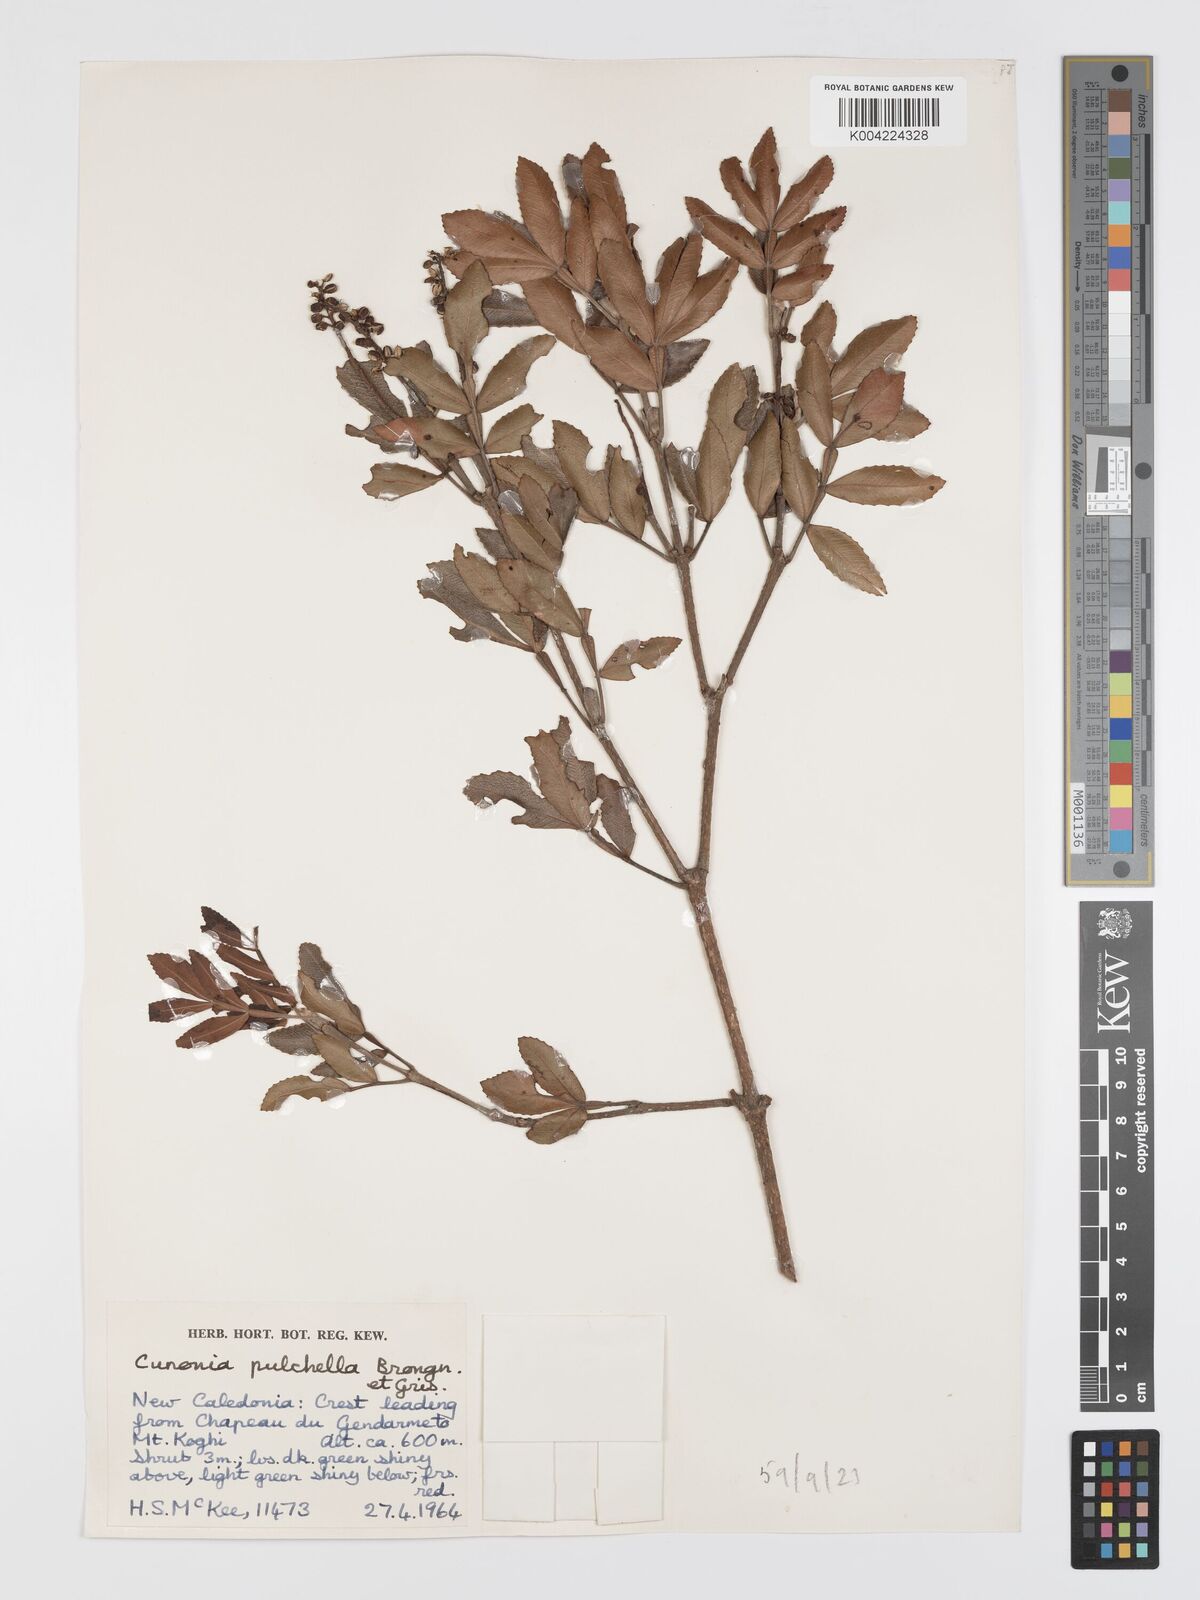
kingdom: Plantae
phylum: Tracheophyta
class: Magnoliopsida
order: Oxalidales
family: Cunoniaceae
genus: Cunonia
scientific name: Cunonia pulchella
